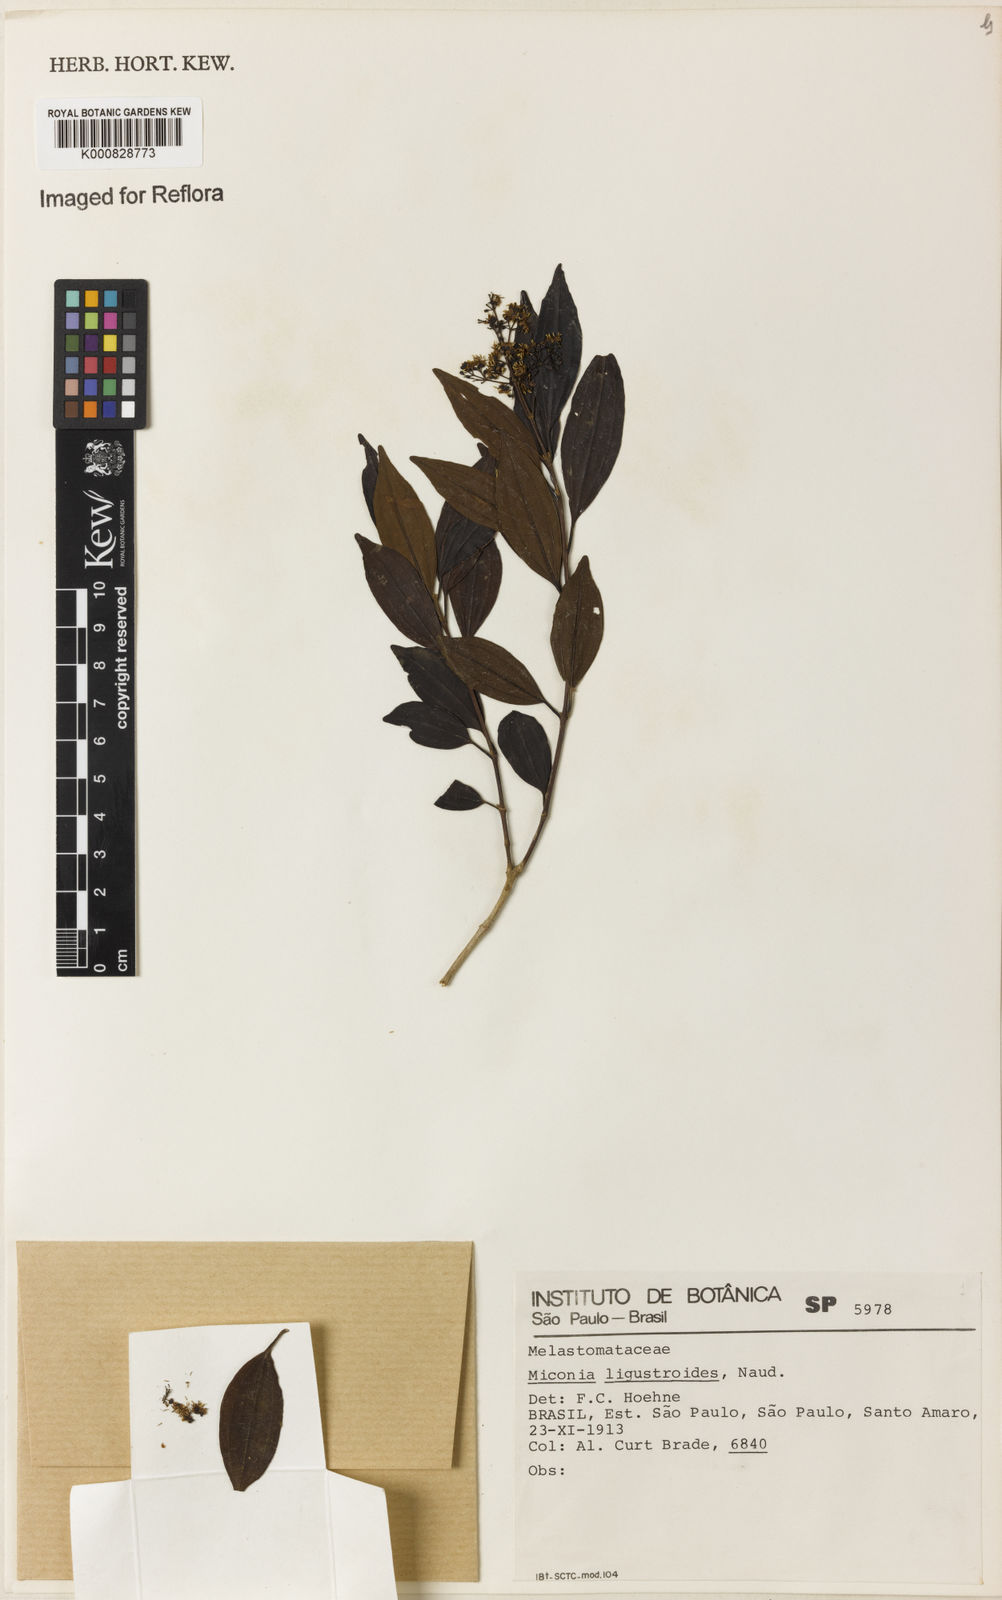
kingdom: Plantae
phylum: Tracheophyta
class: Magnoliopsida
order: Myrtales
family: Melastomataceae
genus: Miconia
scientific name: Miconia ligustroides
